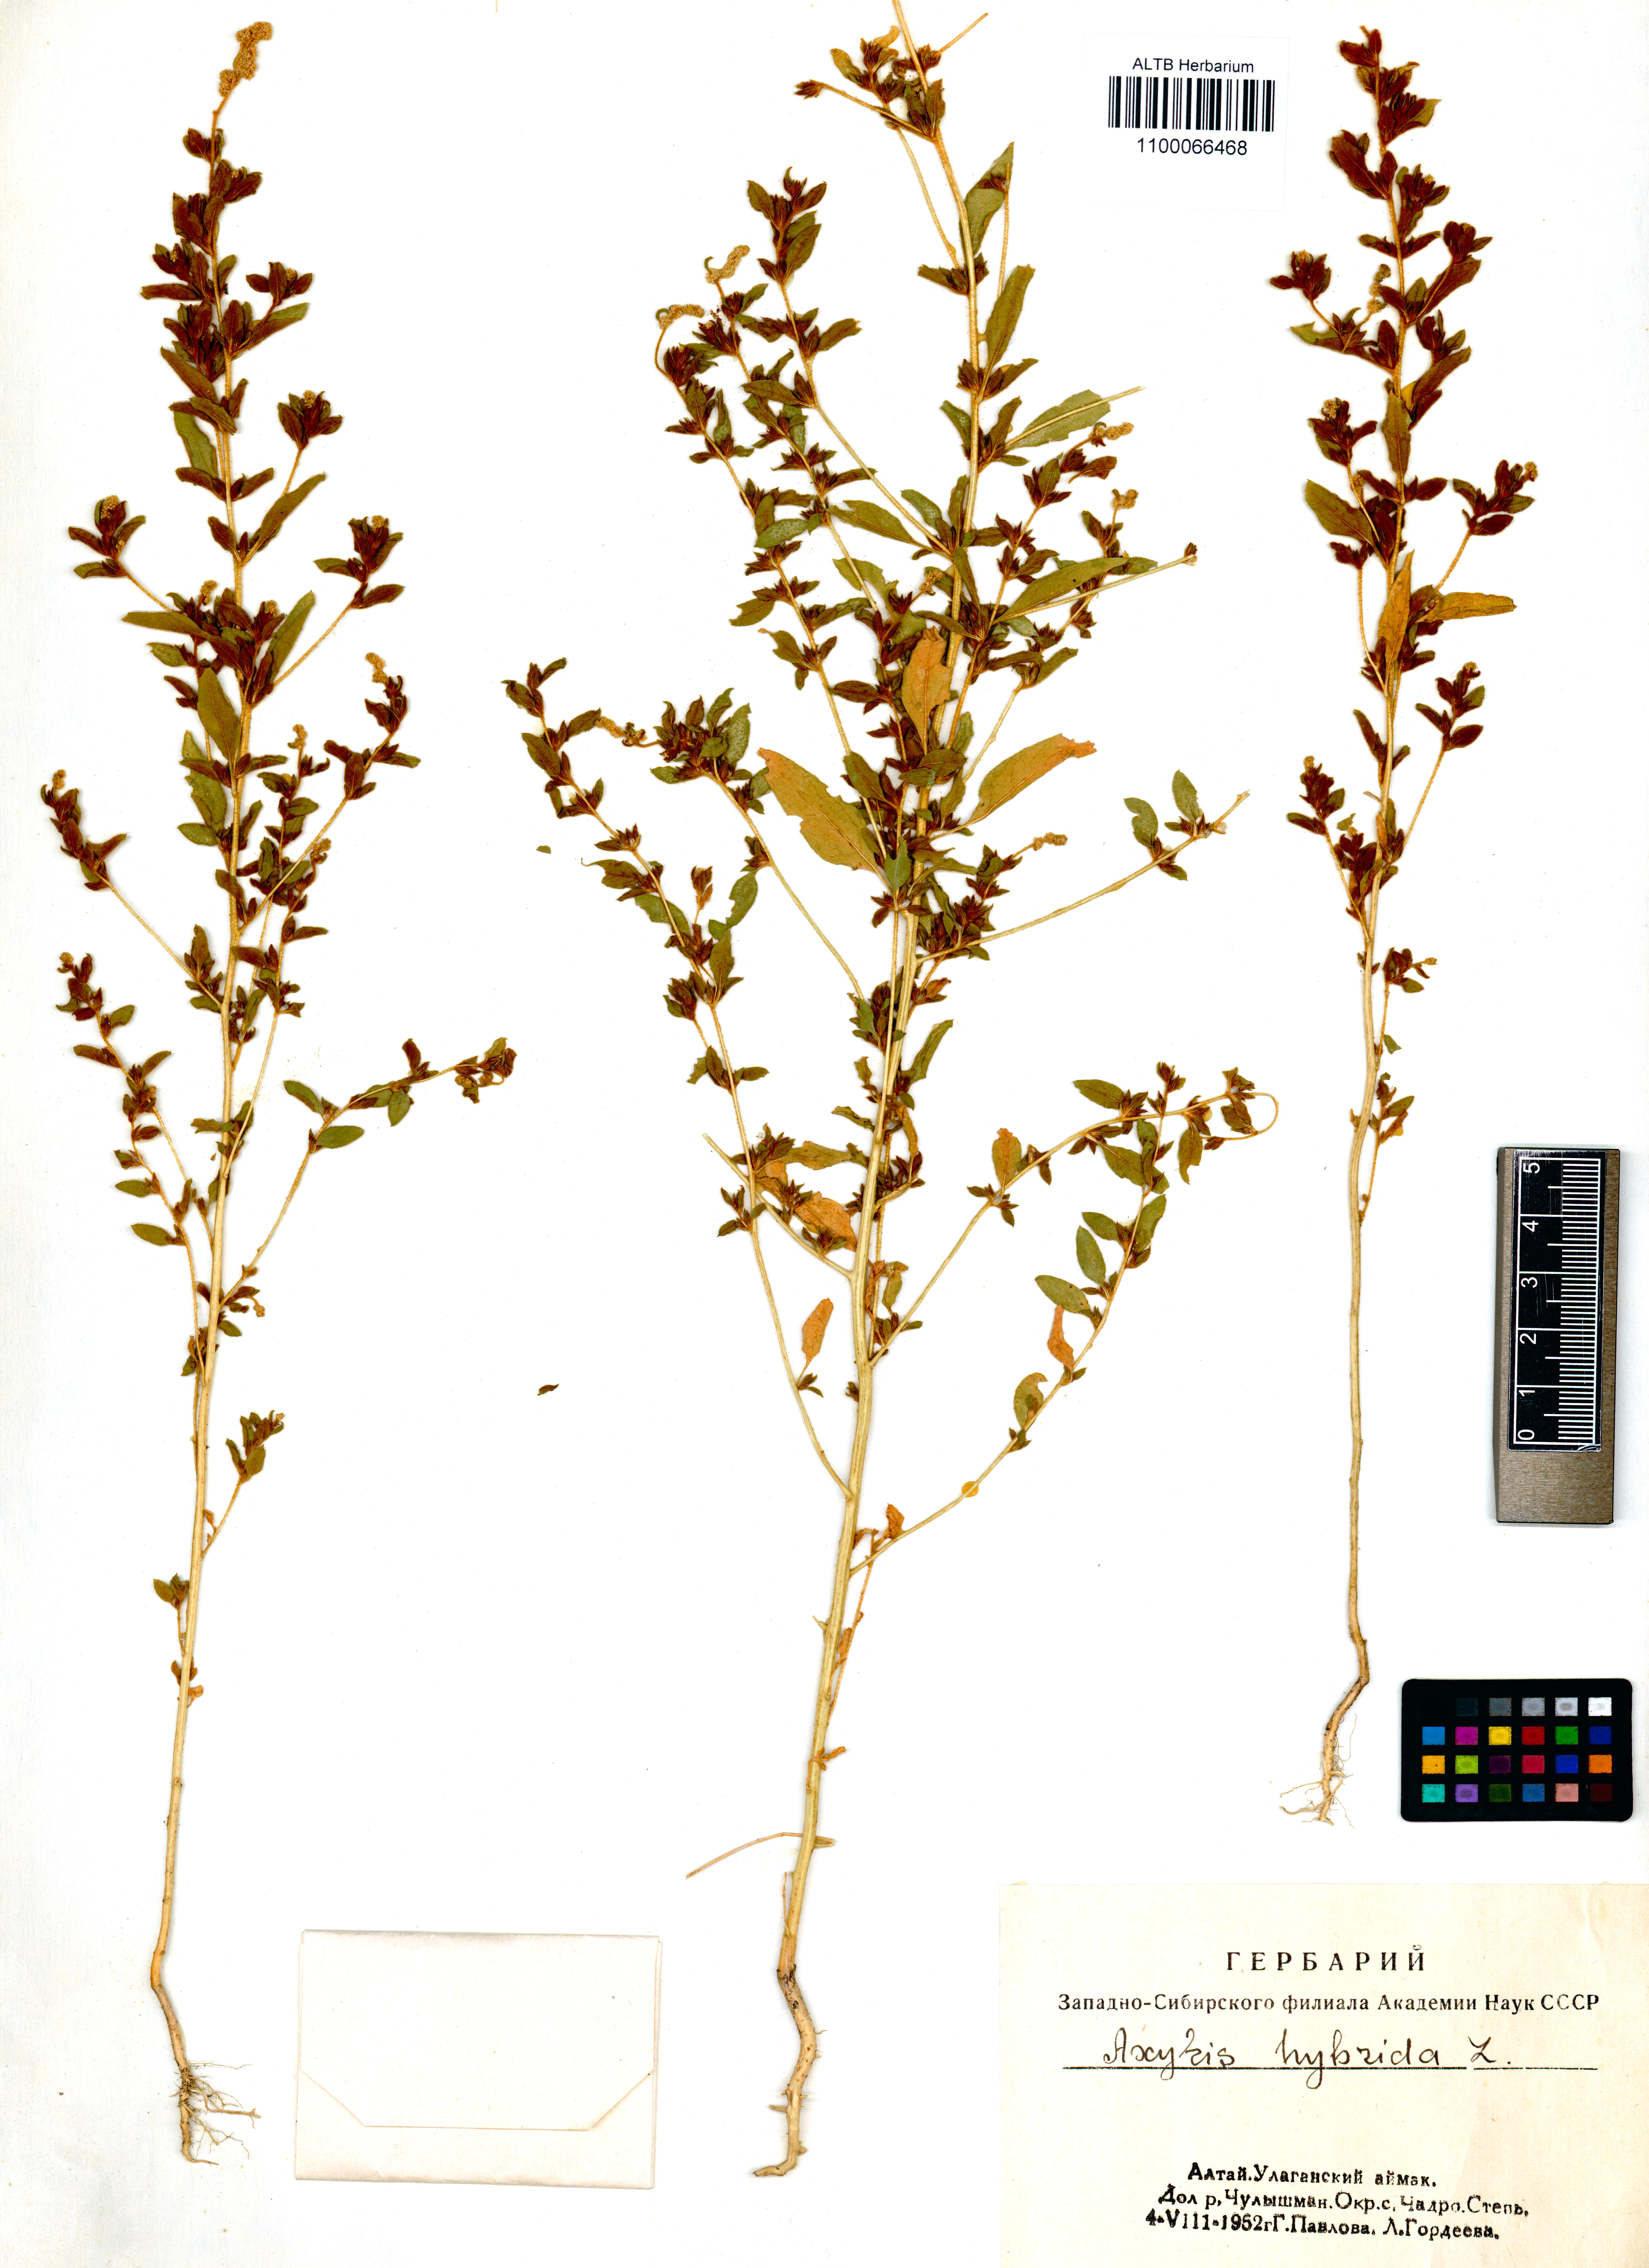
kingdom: Plantae
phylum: Tracheophyta
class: Magnoliopsida
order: Caryophyllales
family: Amaranthaceae
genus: Axyris
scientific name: Axyris hybrida
